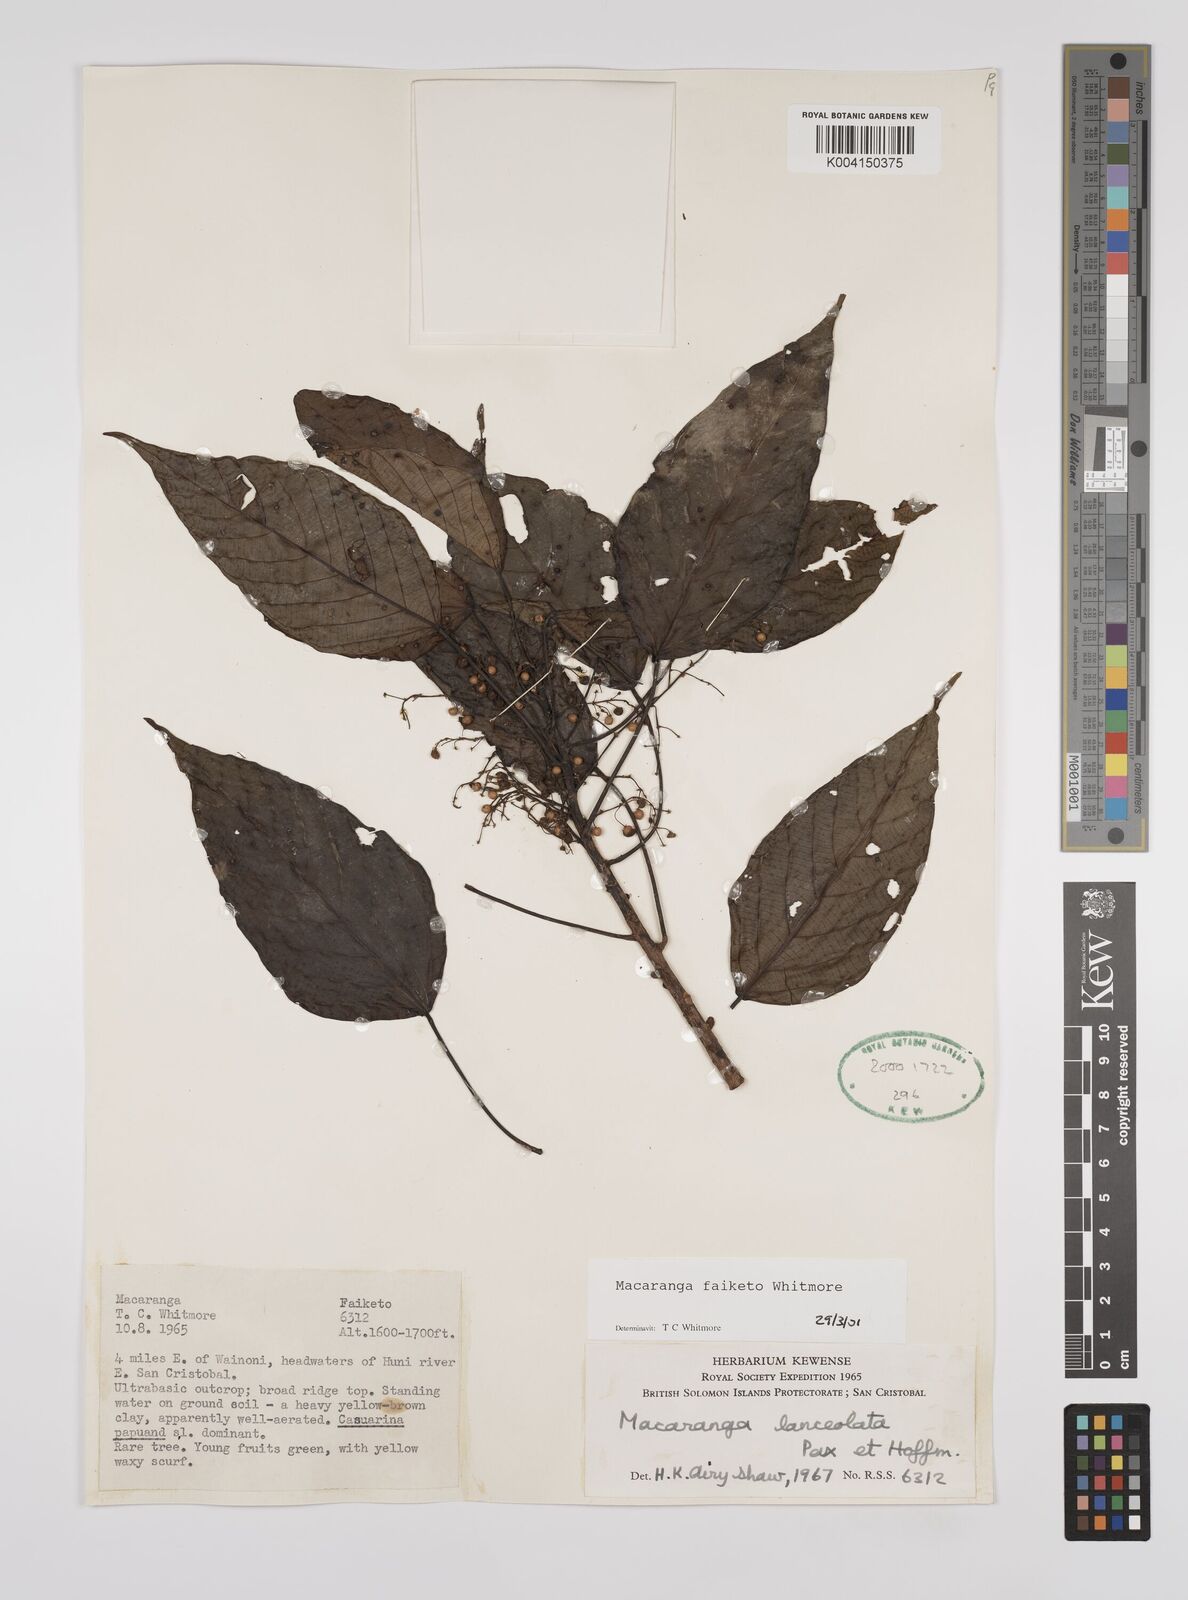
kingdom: Plantae
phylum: Tracheophyta
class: Magnoliopsida
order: Malpighiales
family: Euphorbiaceae
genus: Macaranga
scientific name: Macaranga faiketo
